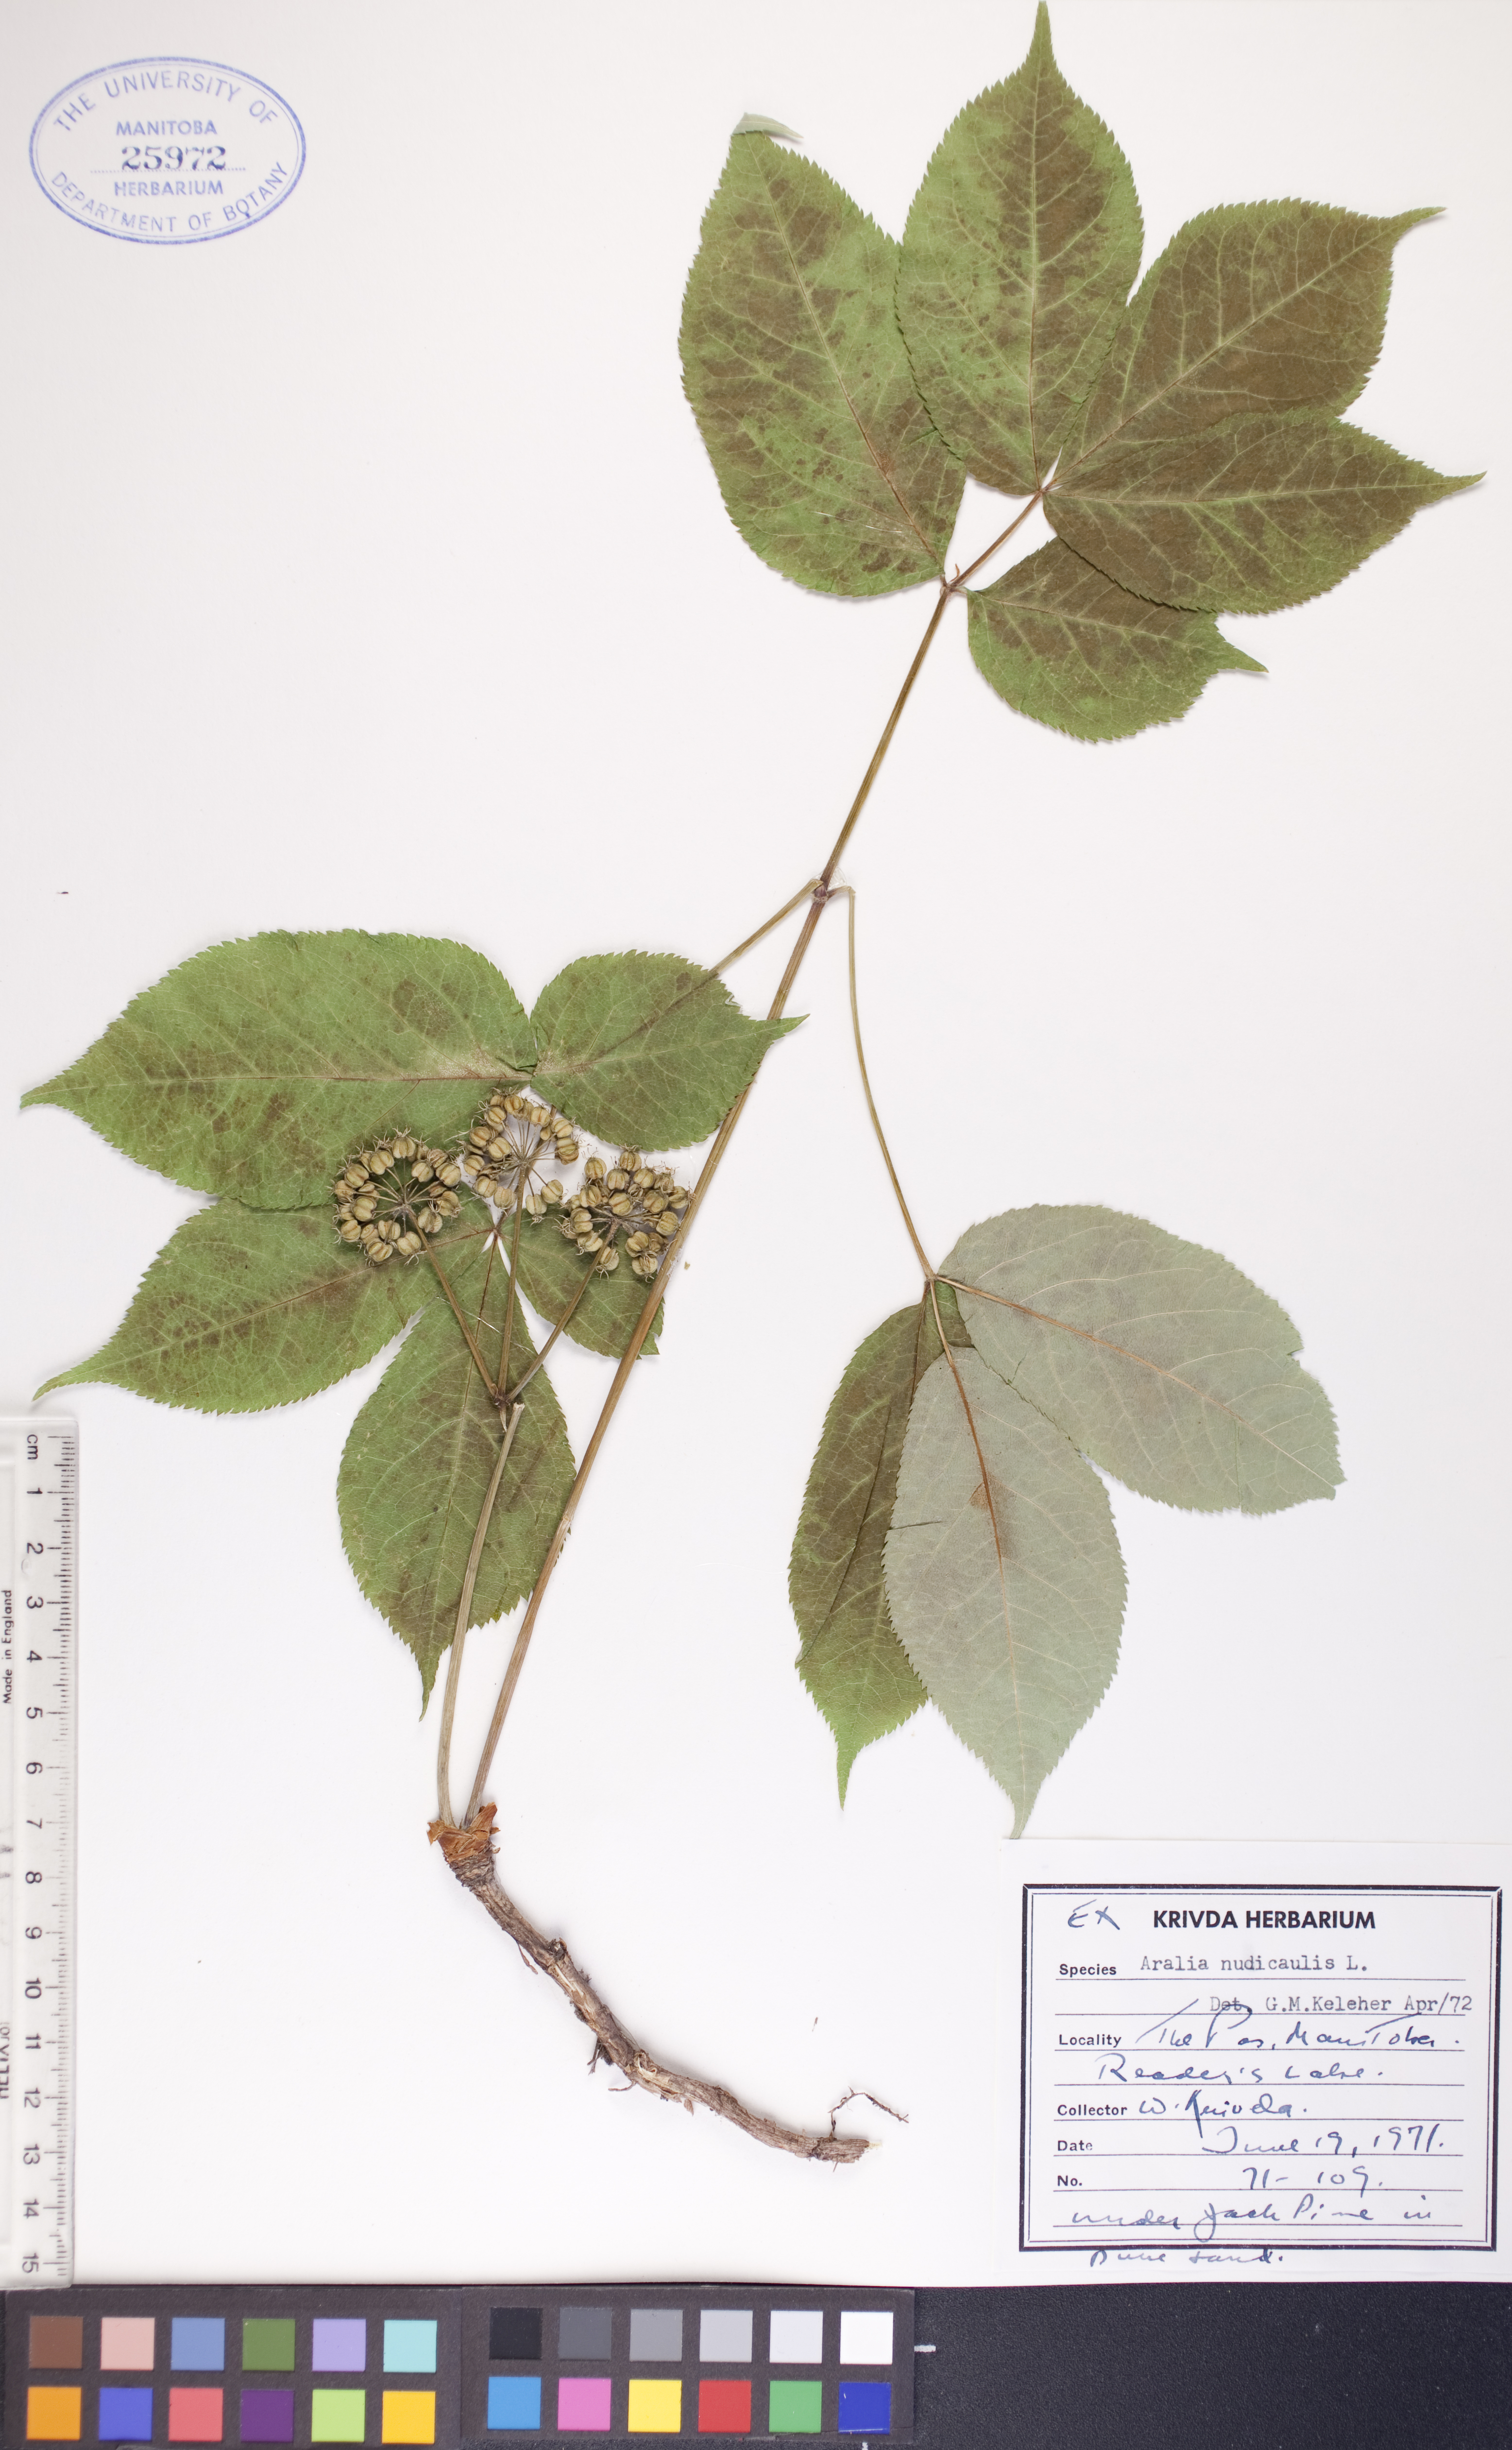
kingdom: Plantae
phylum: Tracheophyta
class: Magnoliopsida
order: Apiales
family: Araliaceae
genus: Aralia
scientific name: Aralia nudicaulis
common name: Wild sarsaparilla
